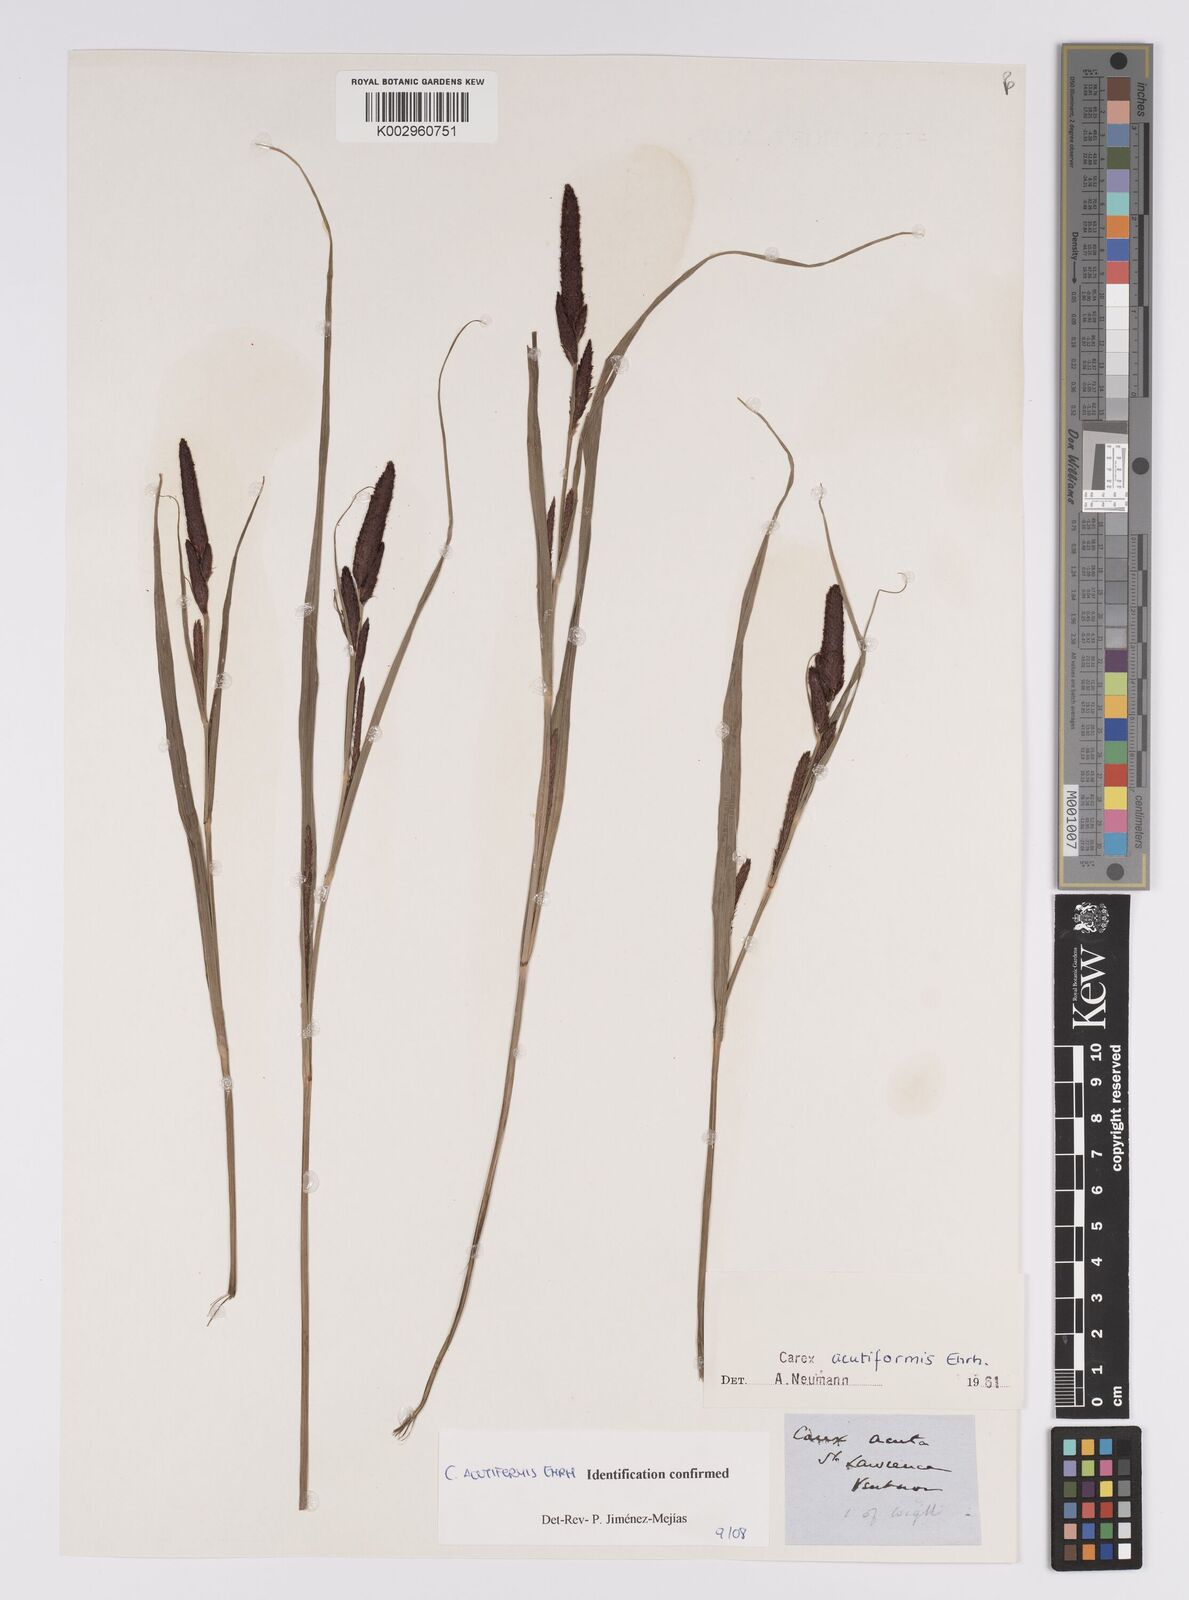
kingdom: Plantae
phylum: Tracheophyta
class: Liliopsida
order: Poales
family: Cyperaceae
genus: Carex
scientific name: Carex acutiformis
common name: Lesser pond-sedge
